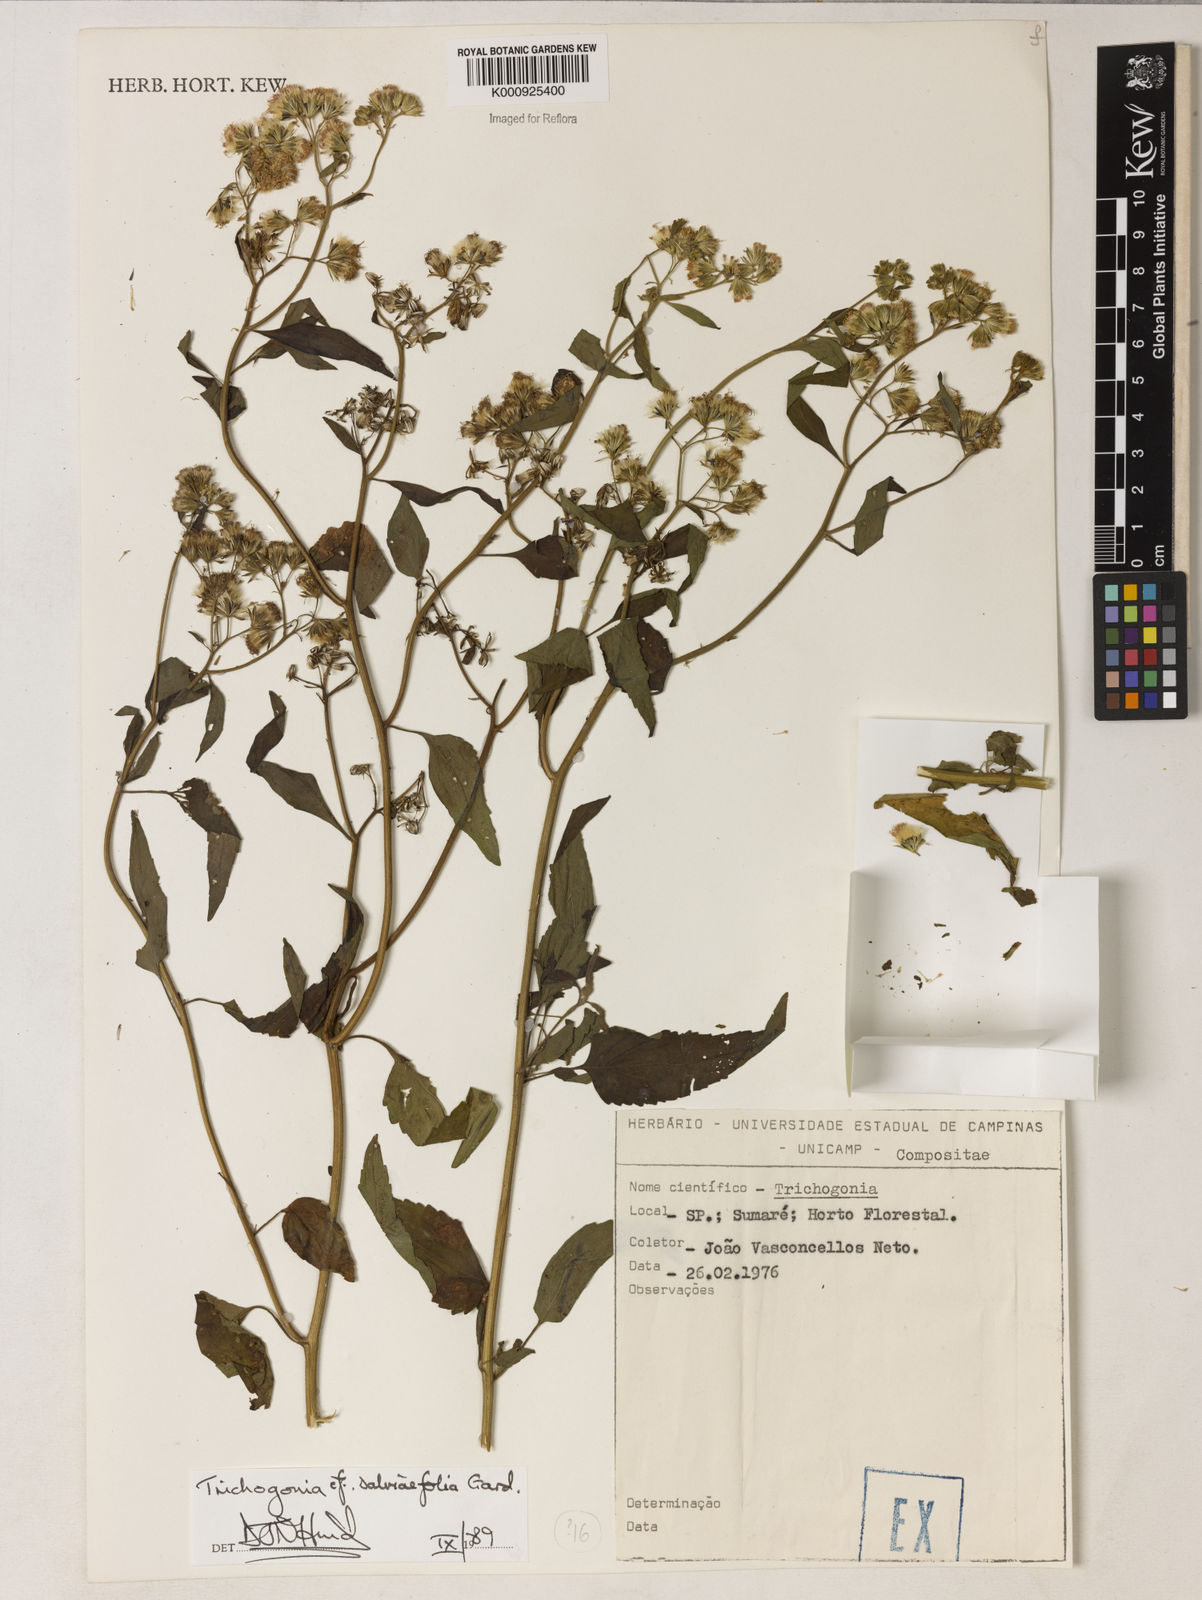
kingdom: Plantae
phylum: Tracheophyta
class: Magnoliopsida
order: Asterales
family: Asteraceae
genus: Trichogonia
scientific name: Trichogonia
